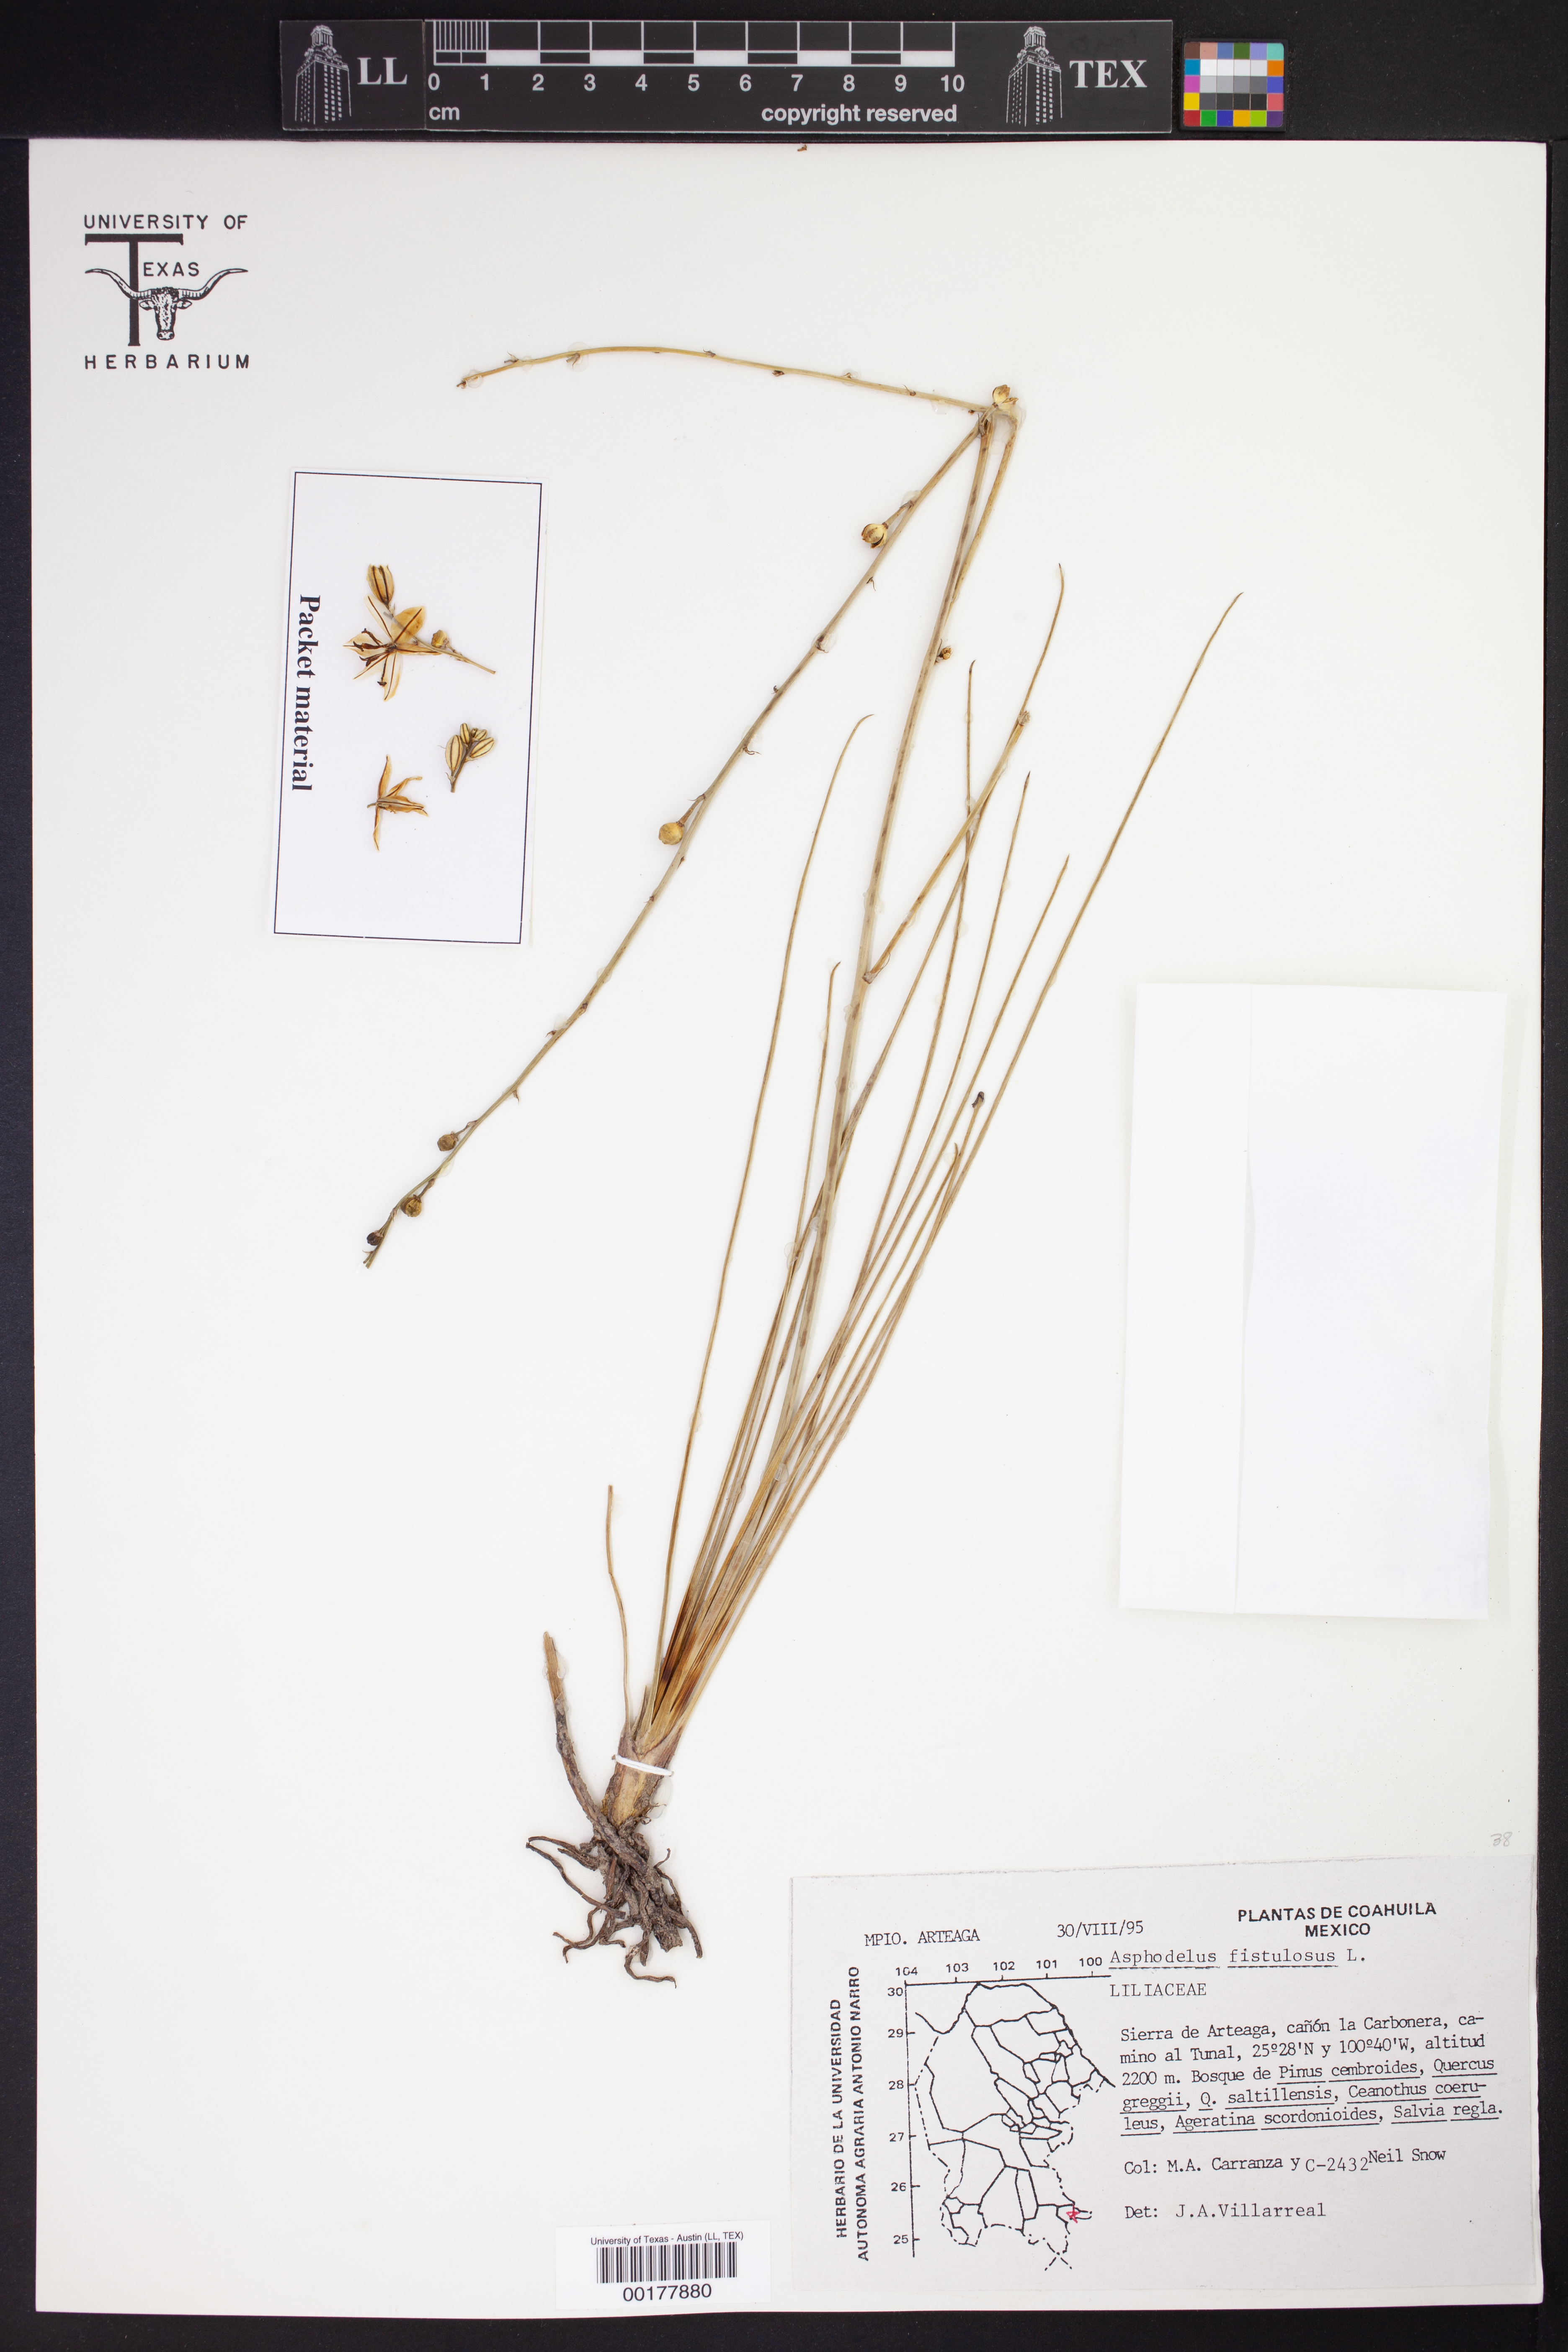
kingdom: Plantae
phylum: Tracheophyta
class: Liliopsida
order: Asparagales
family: Asphodelaceae
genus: Asphodelus
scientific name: Asphodelus fistulosus
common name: Onionweed
